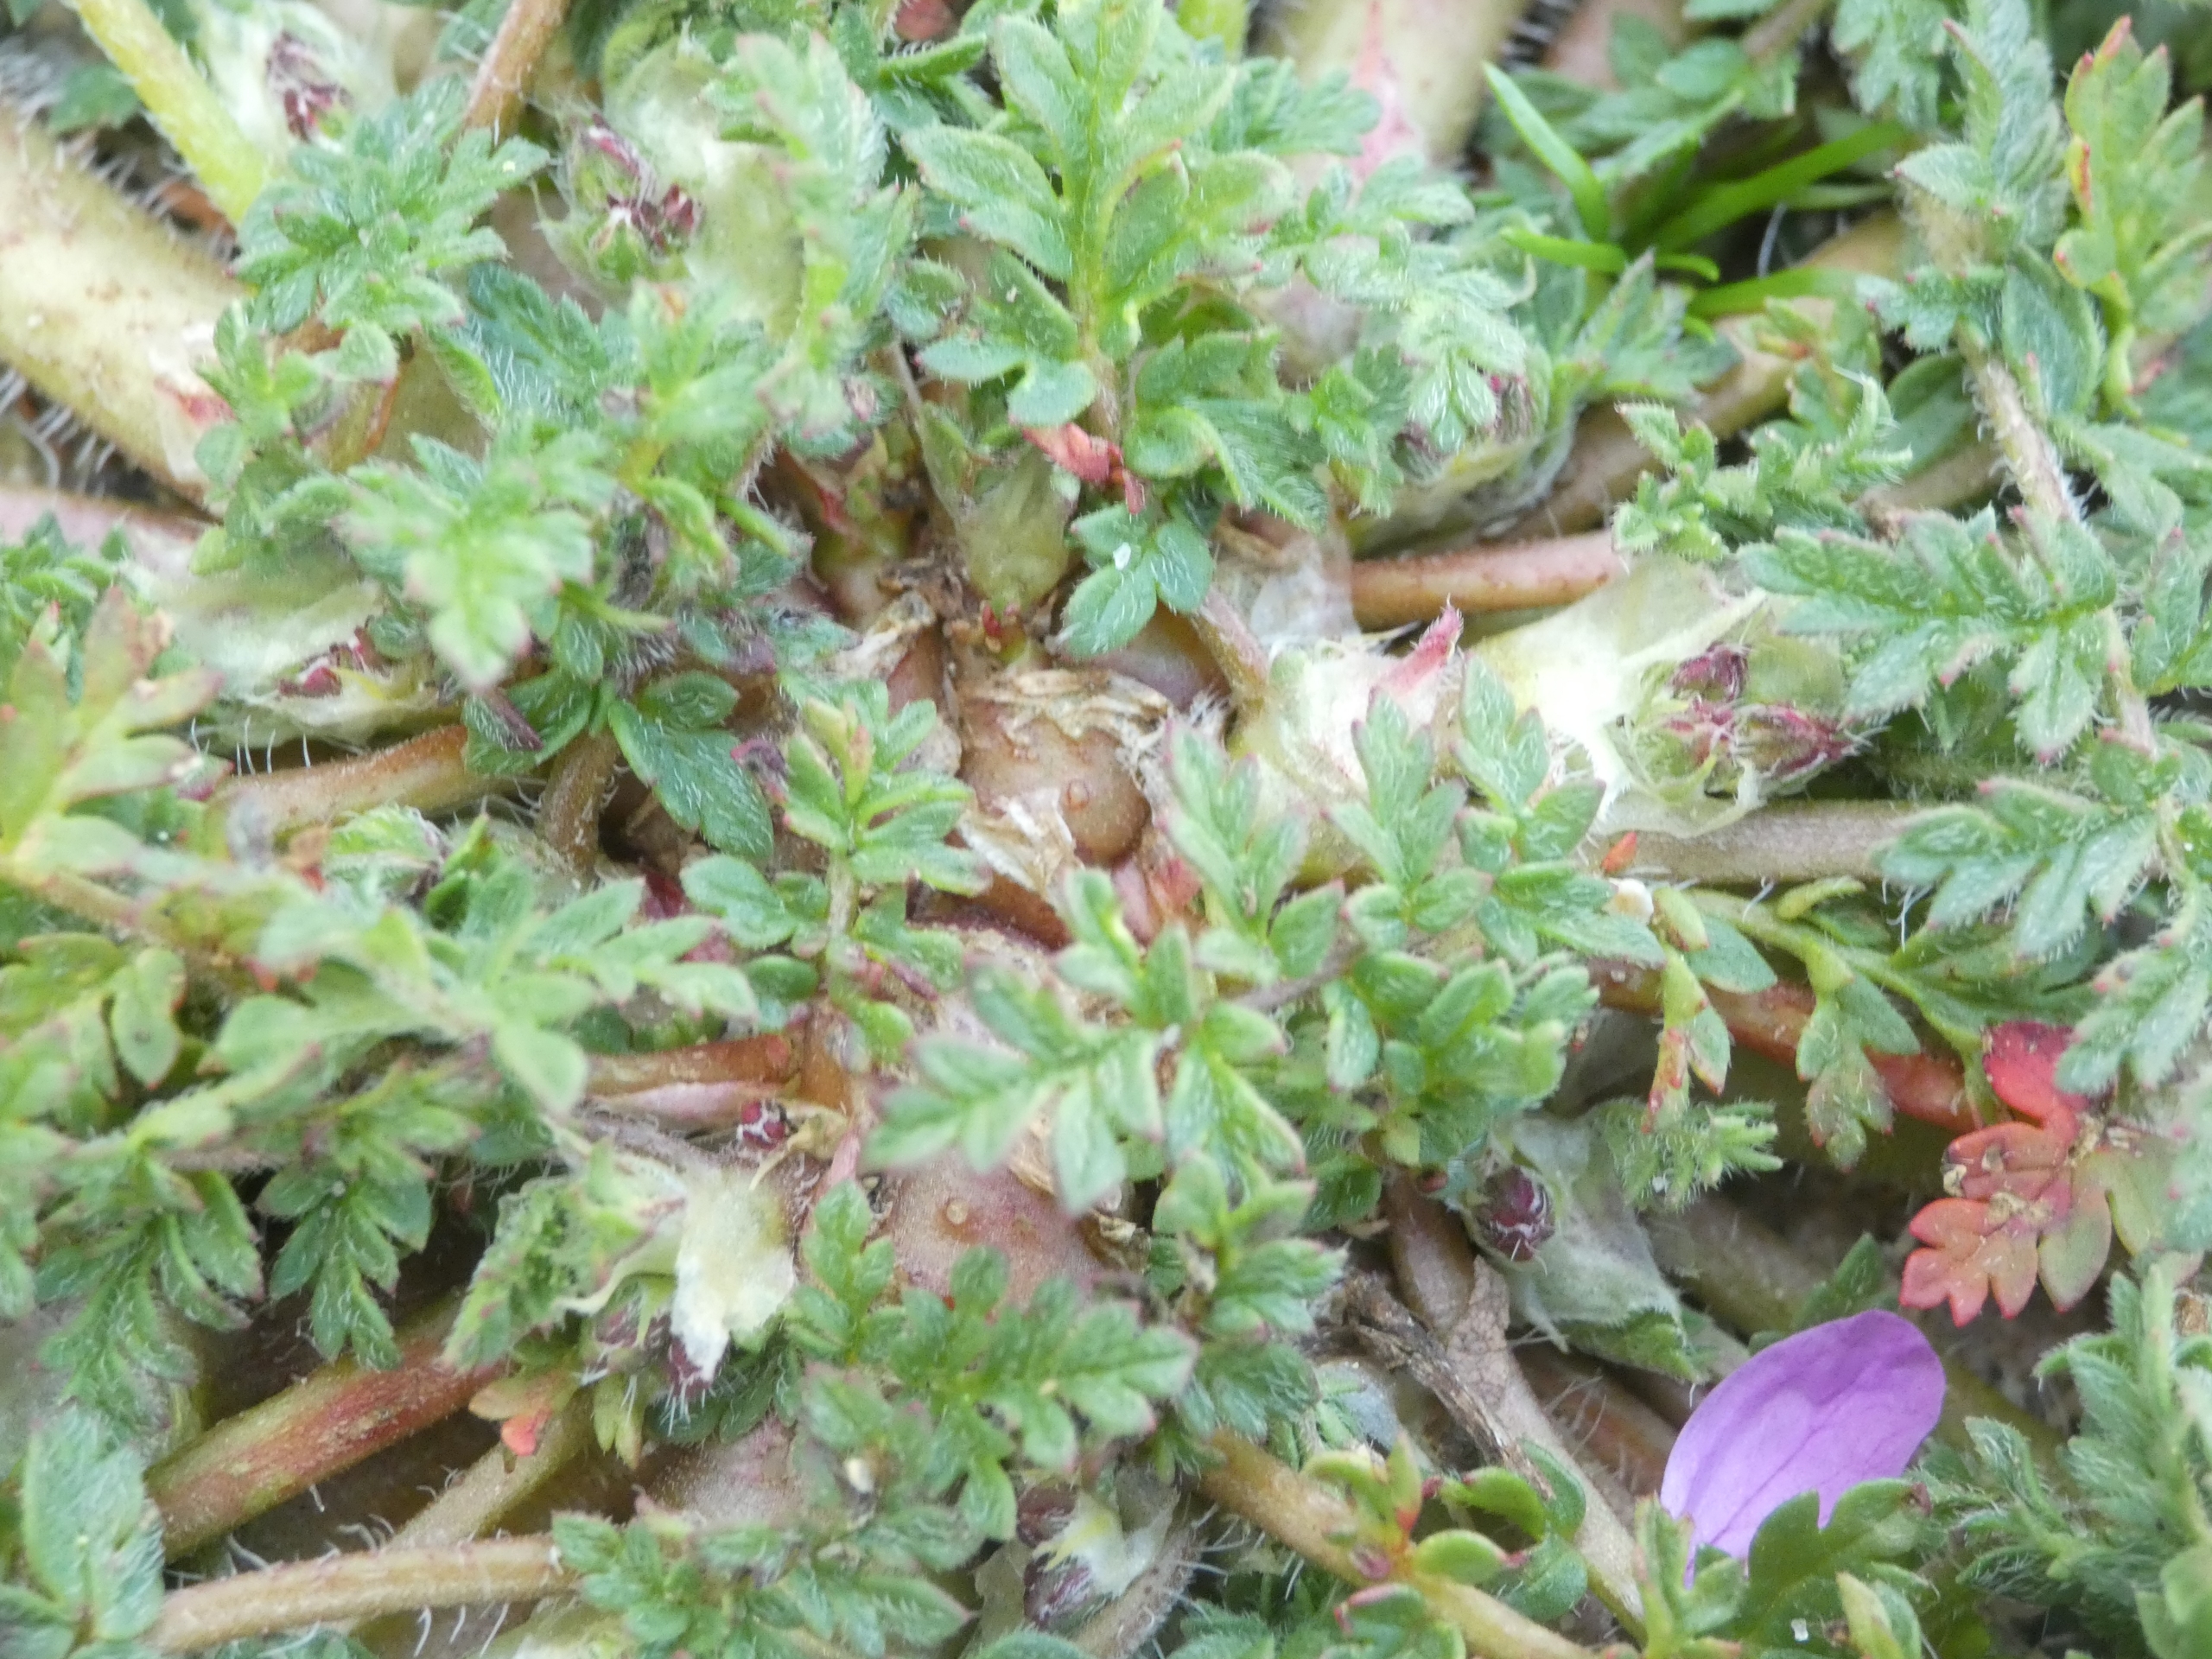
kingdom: Plantae
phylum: Tracheophyta
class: Magnoliopsida
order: Geraniales
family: Geraniaceae
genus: Erodium
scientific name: Erodium cicutarium
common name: Hejrenæb
